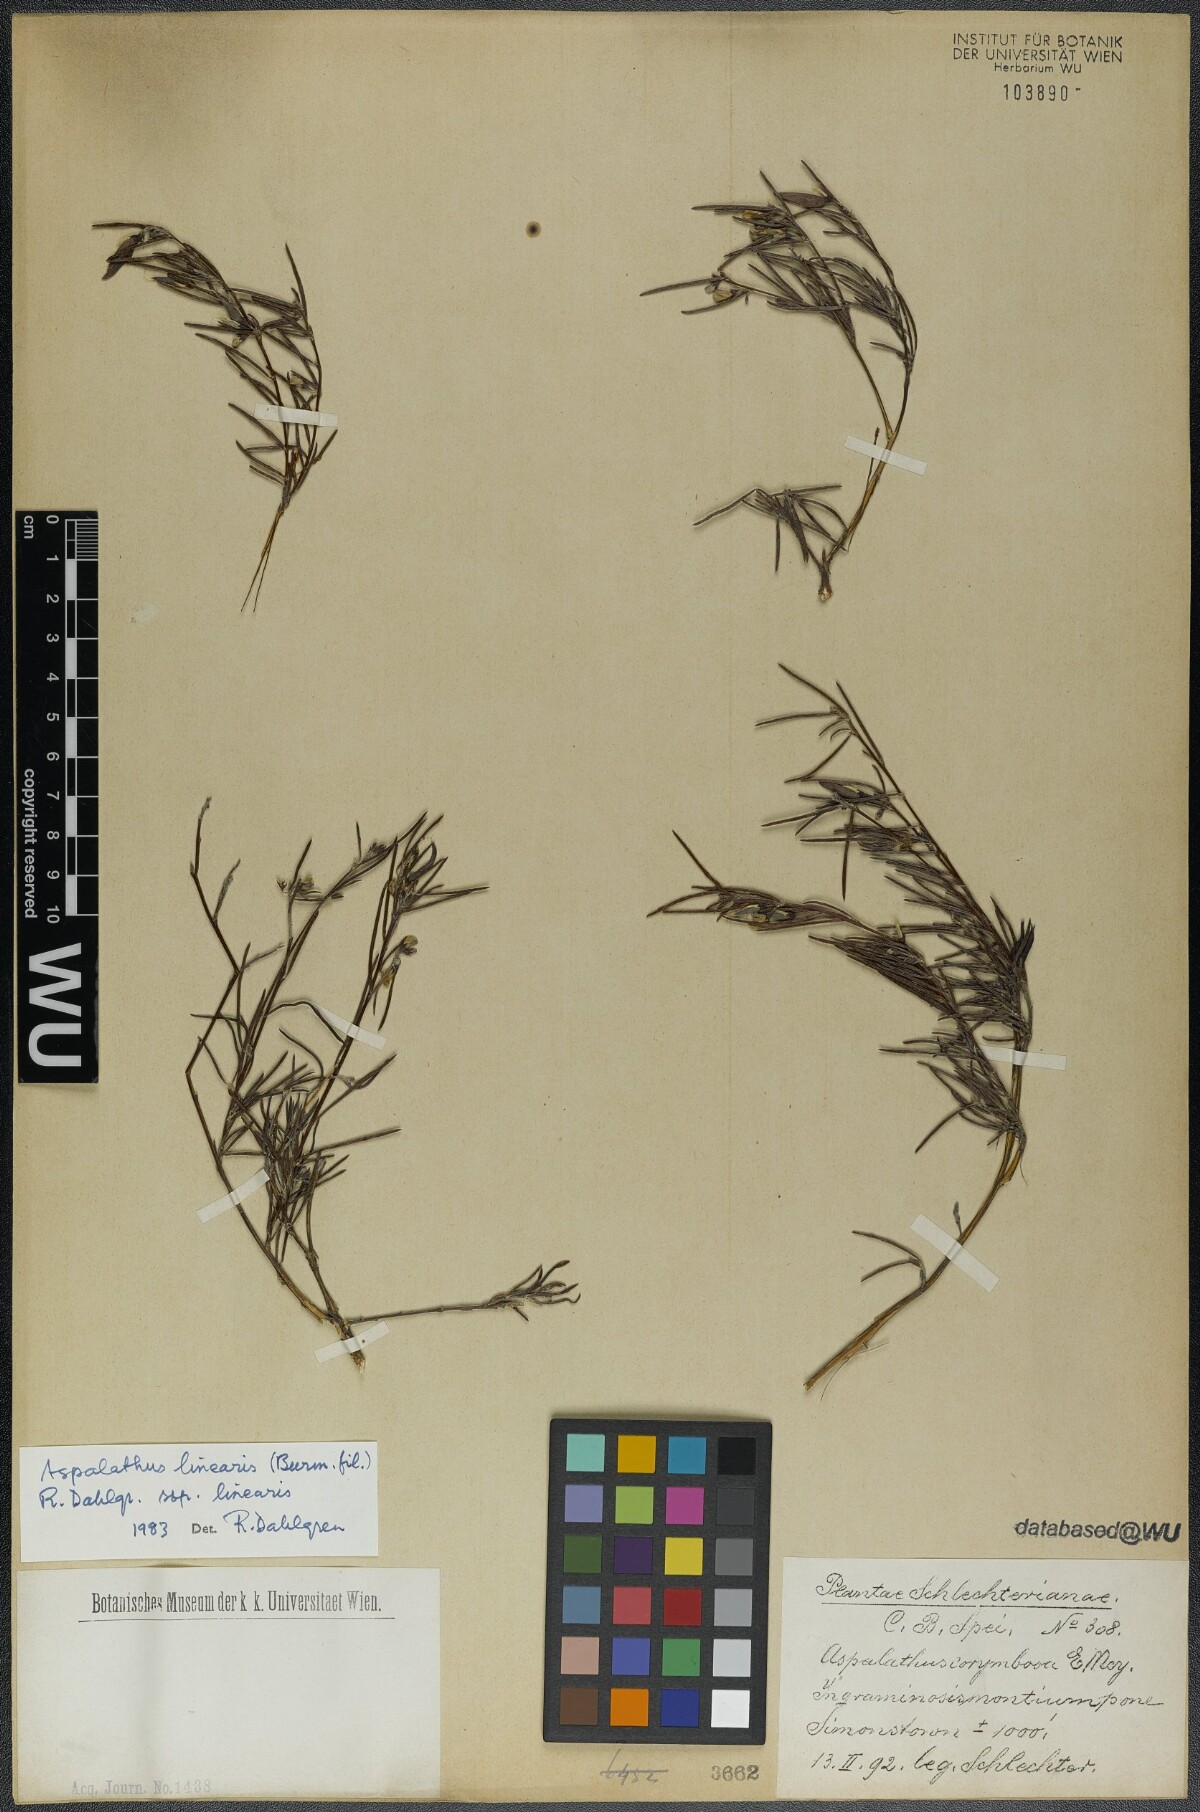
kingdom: Plantae
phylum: Tracheophyta
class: Magnoliopsida
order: Fabales
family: Fabaceae
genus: Aspalathus
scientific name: Aspalathus linearis
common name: Rooibos-tea
